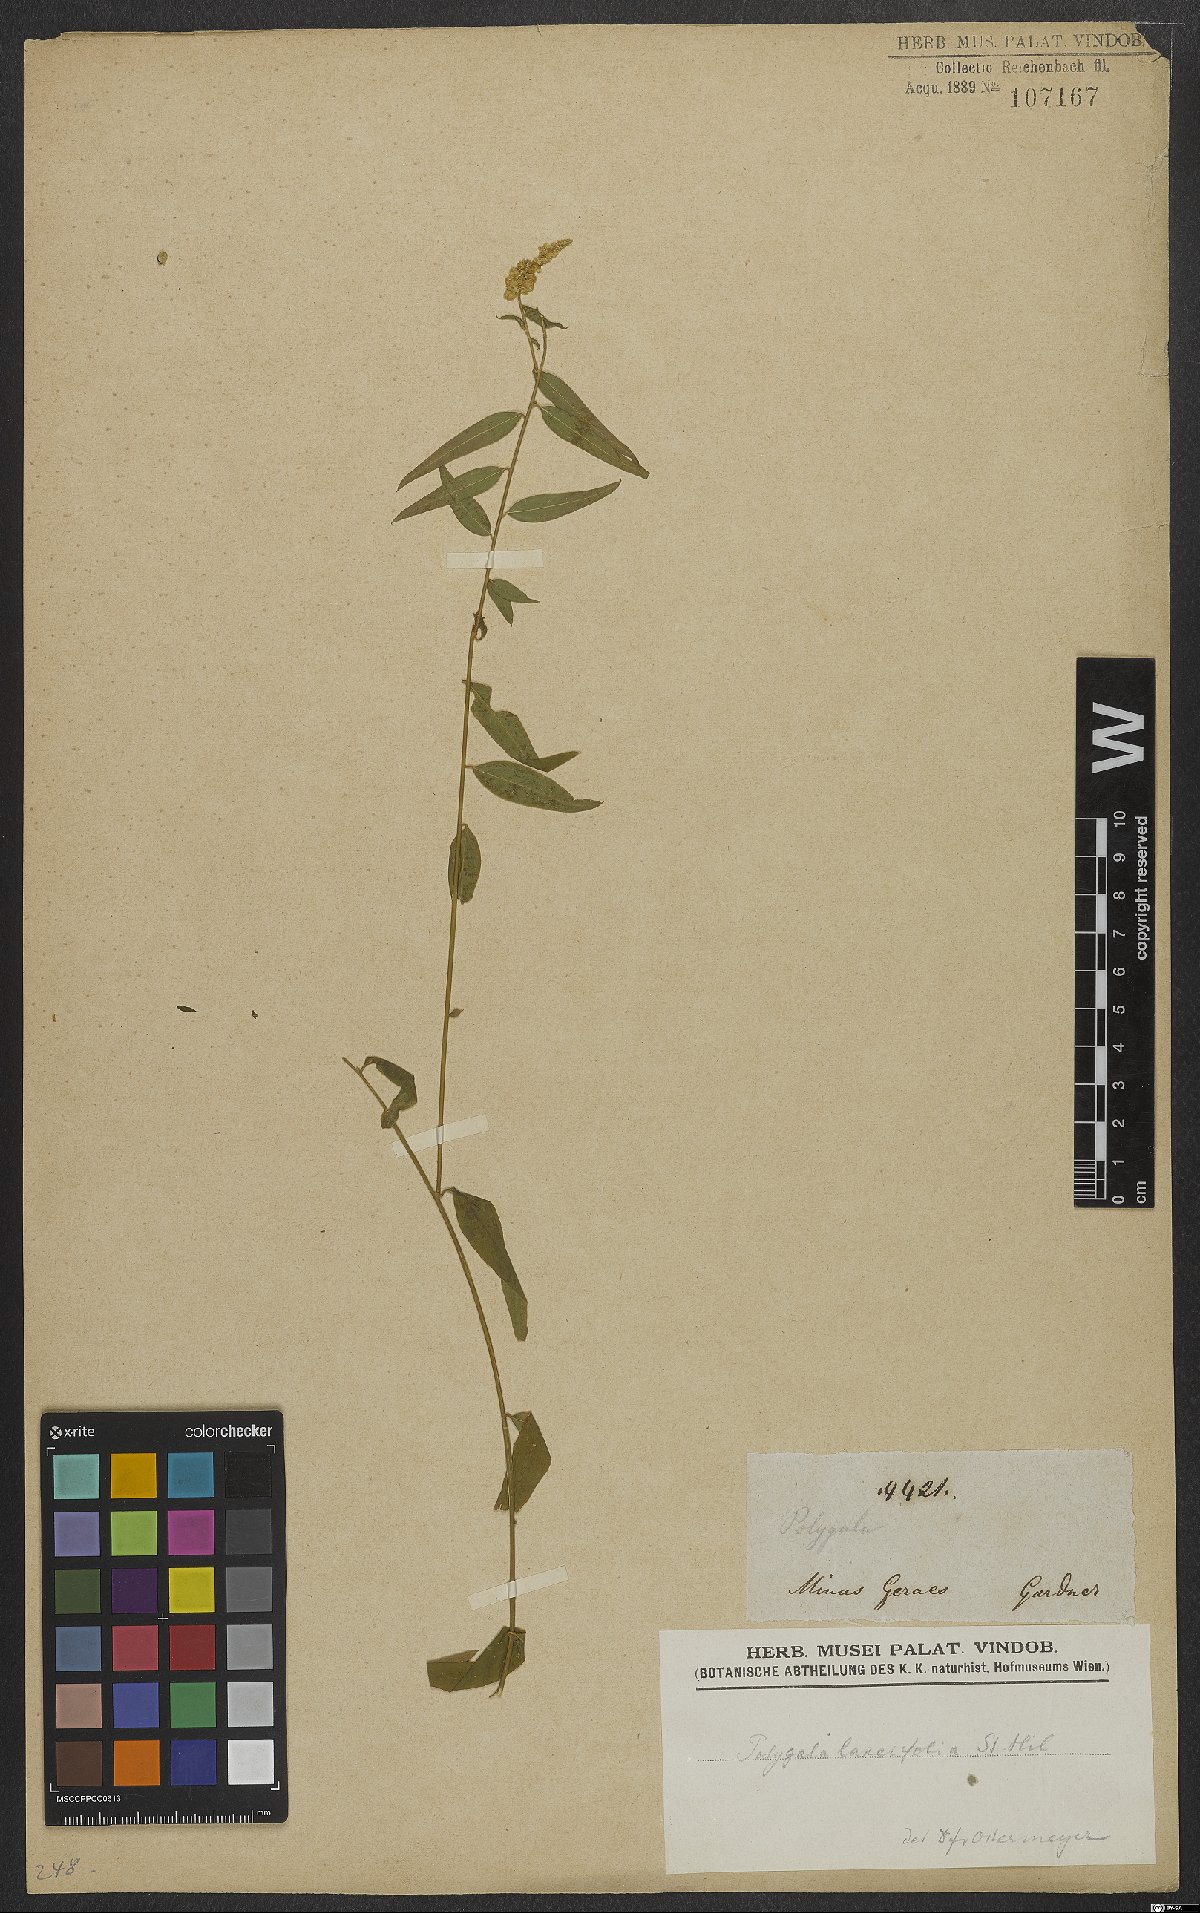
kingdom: Plantae
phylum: Tracheophyta
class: Magnoliopsida
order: Fabales
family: Polygalaceae
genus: Polygala
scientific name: Polygala lancifolia
